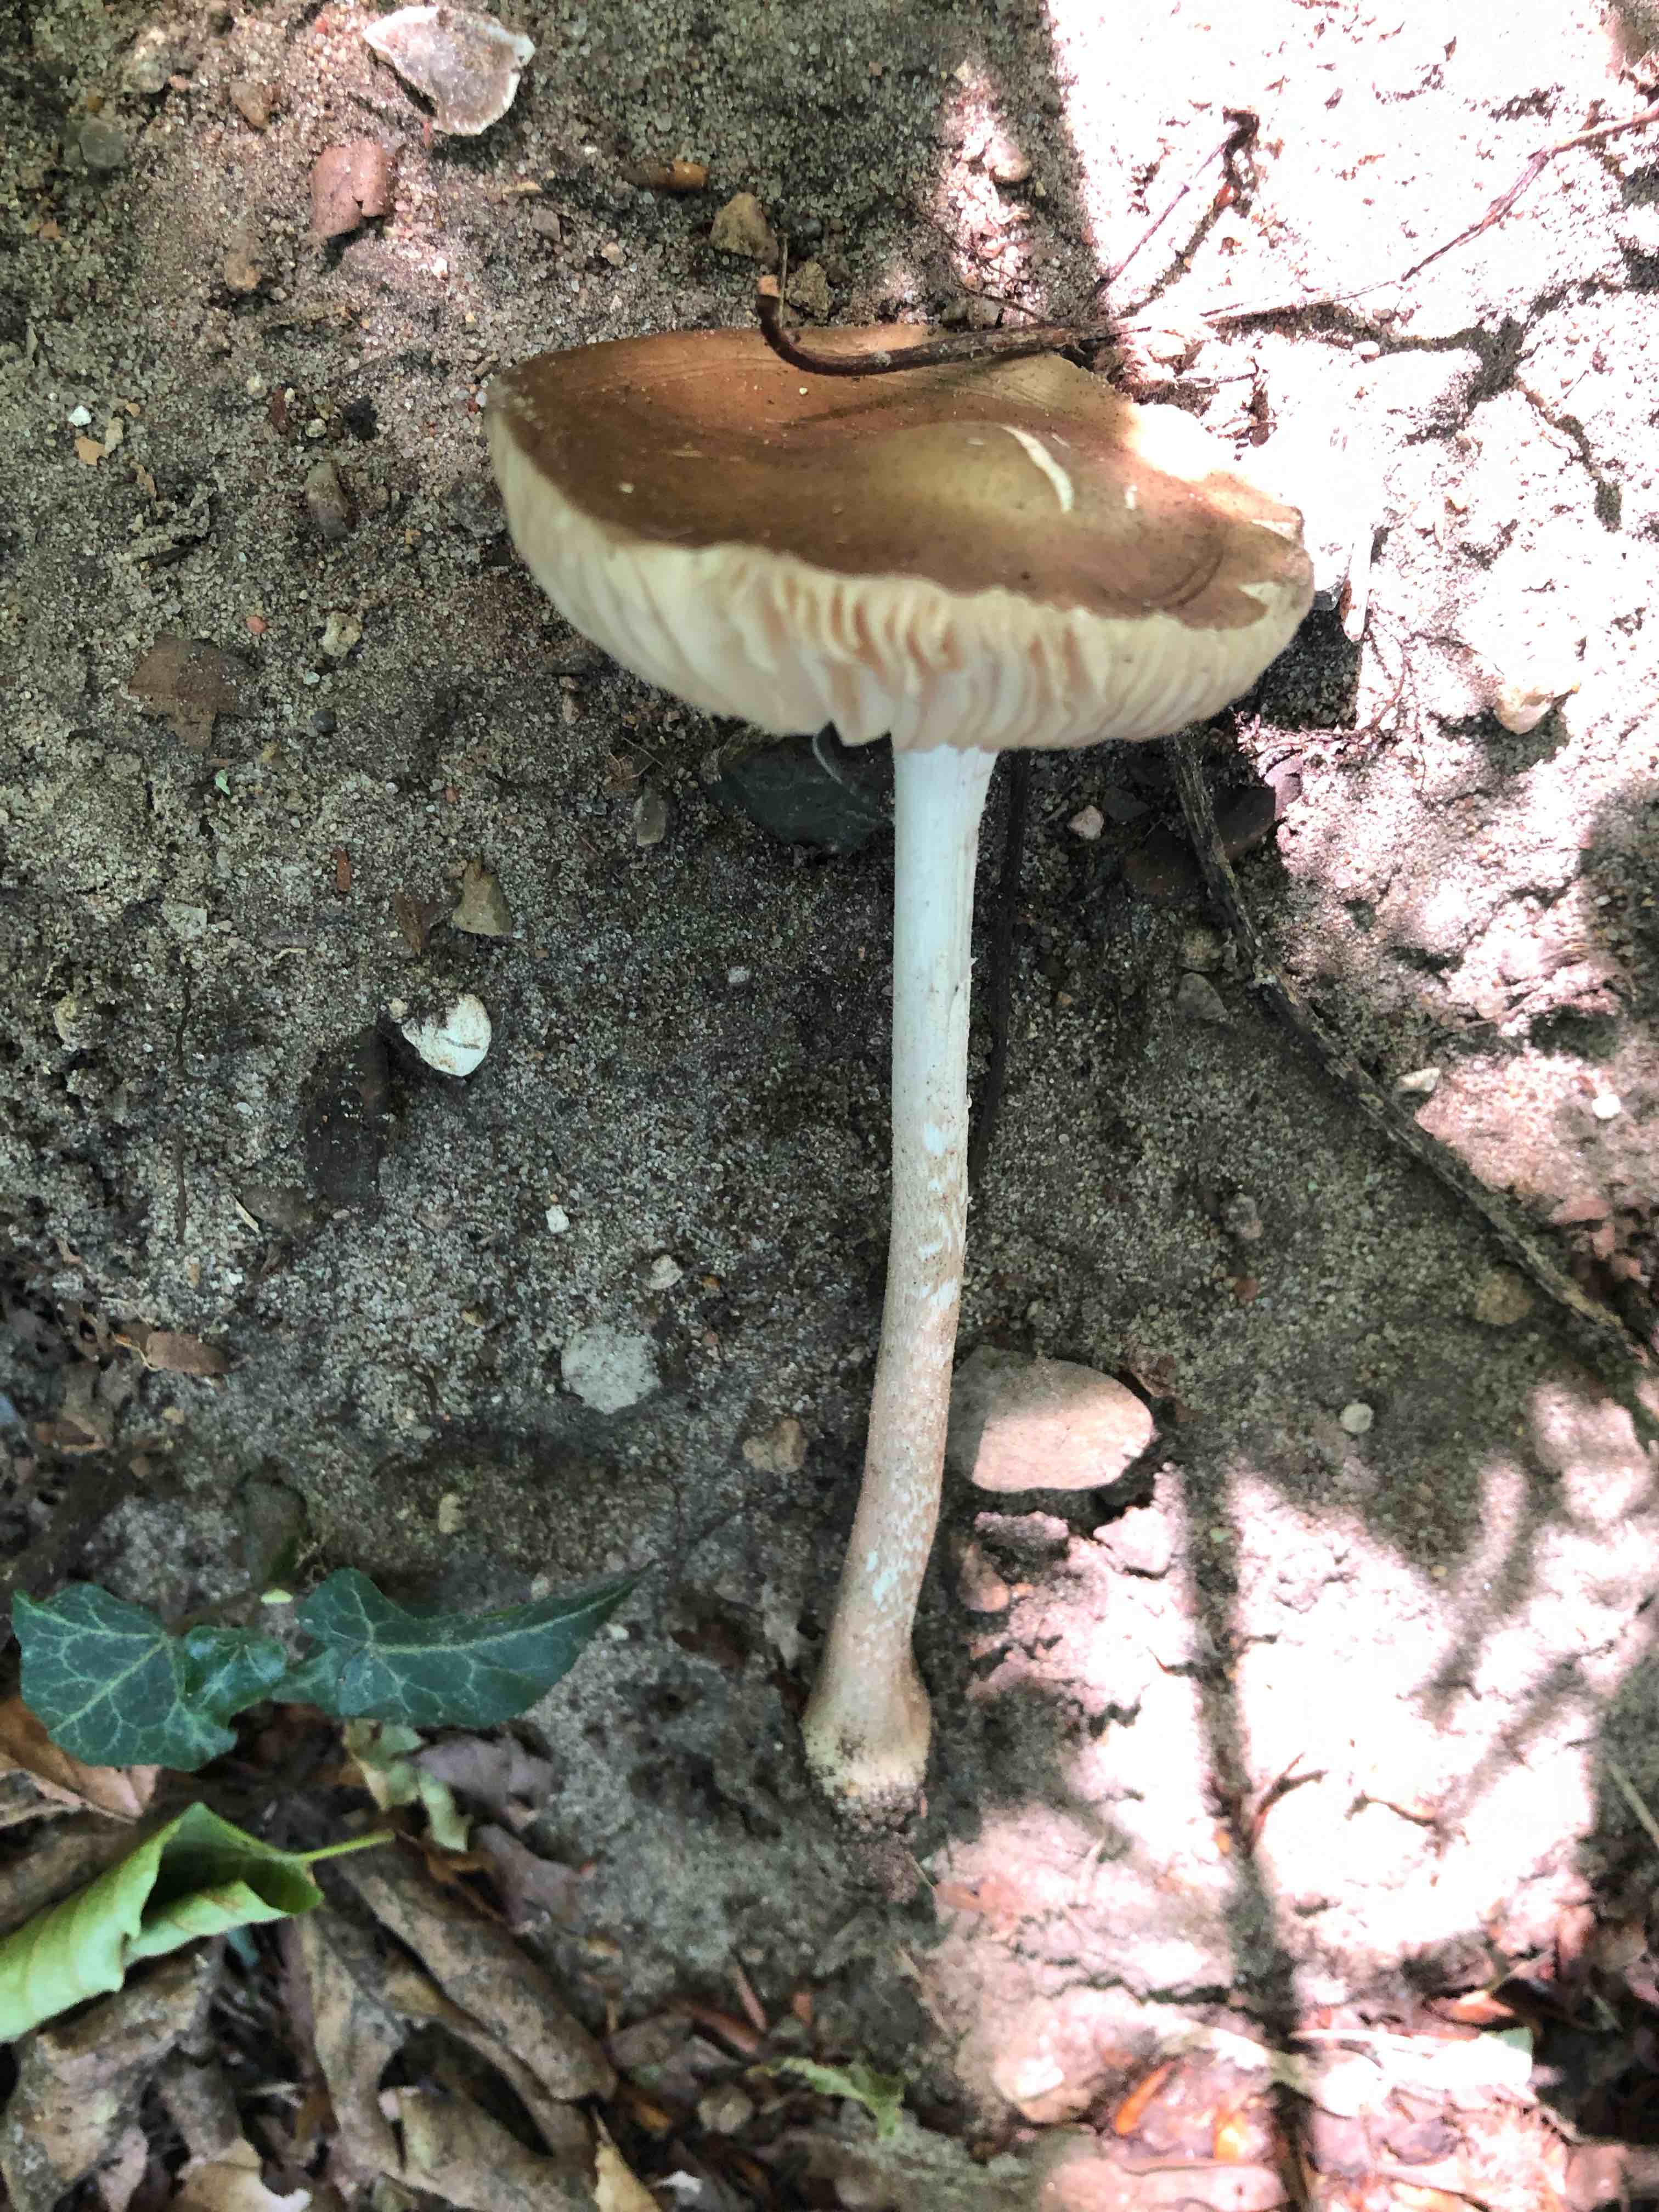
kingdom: Fungi
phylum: Basidiomycota
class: Agaricomycetes
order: Agaricales
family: Physalacriaceae
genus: Hymenopellis
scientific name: Hymenopellis radicata
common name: almindelig pælerodshat
